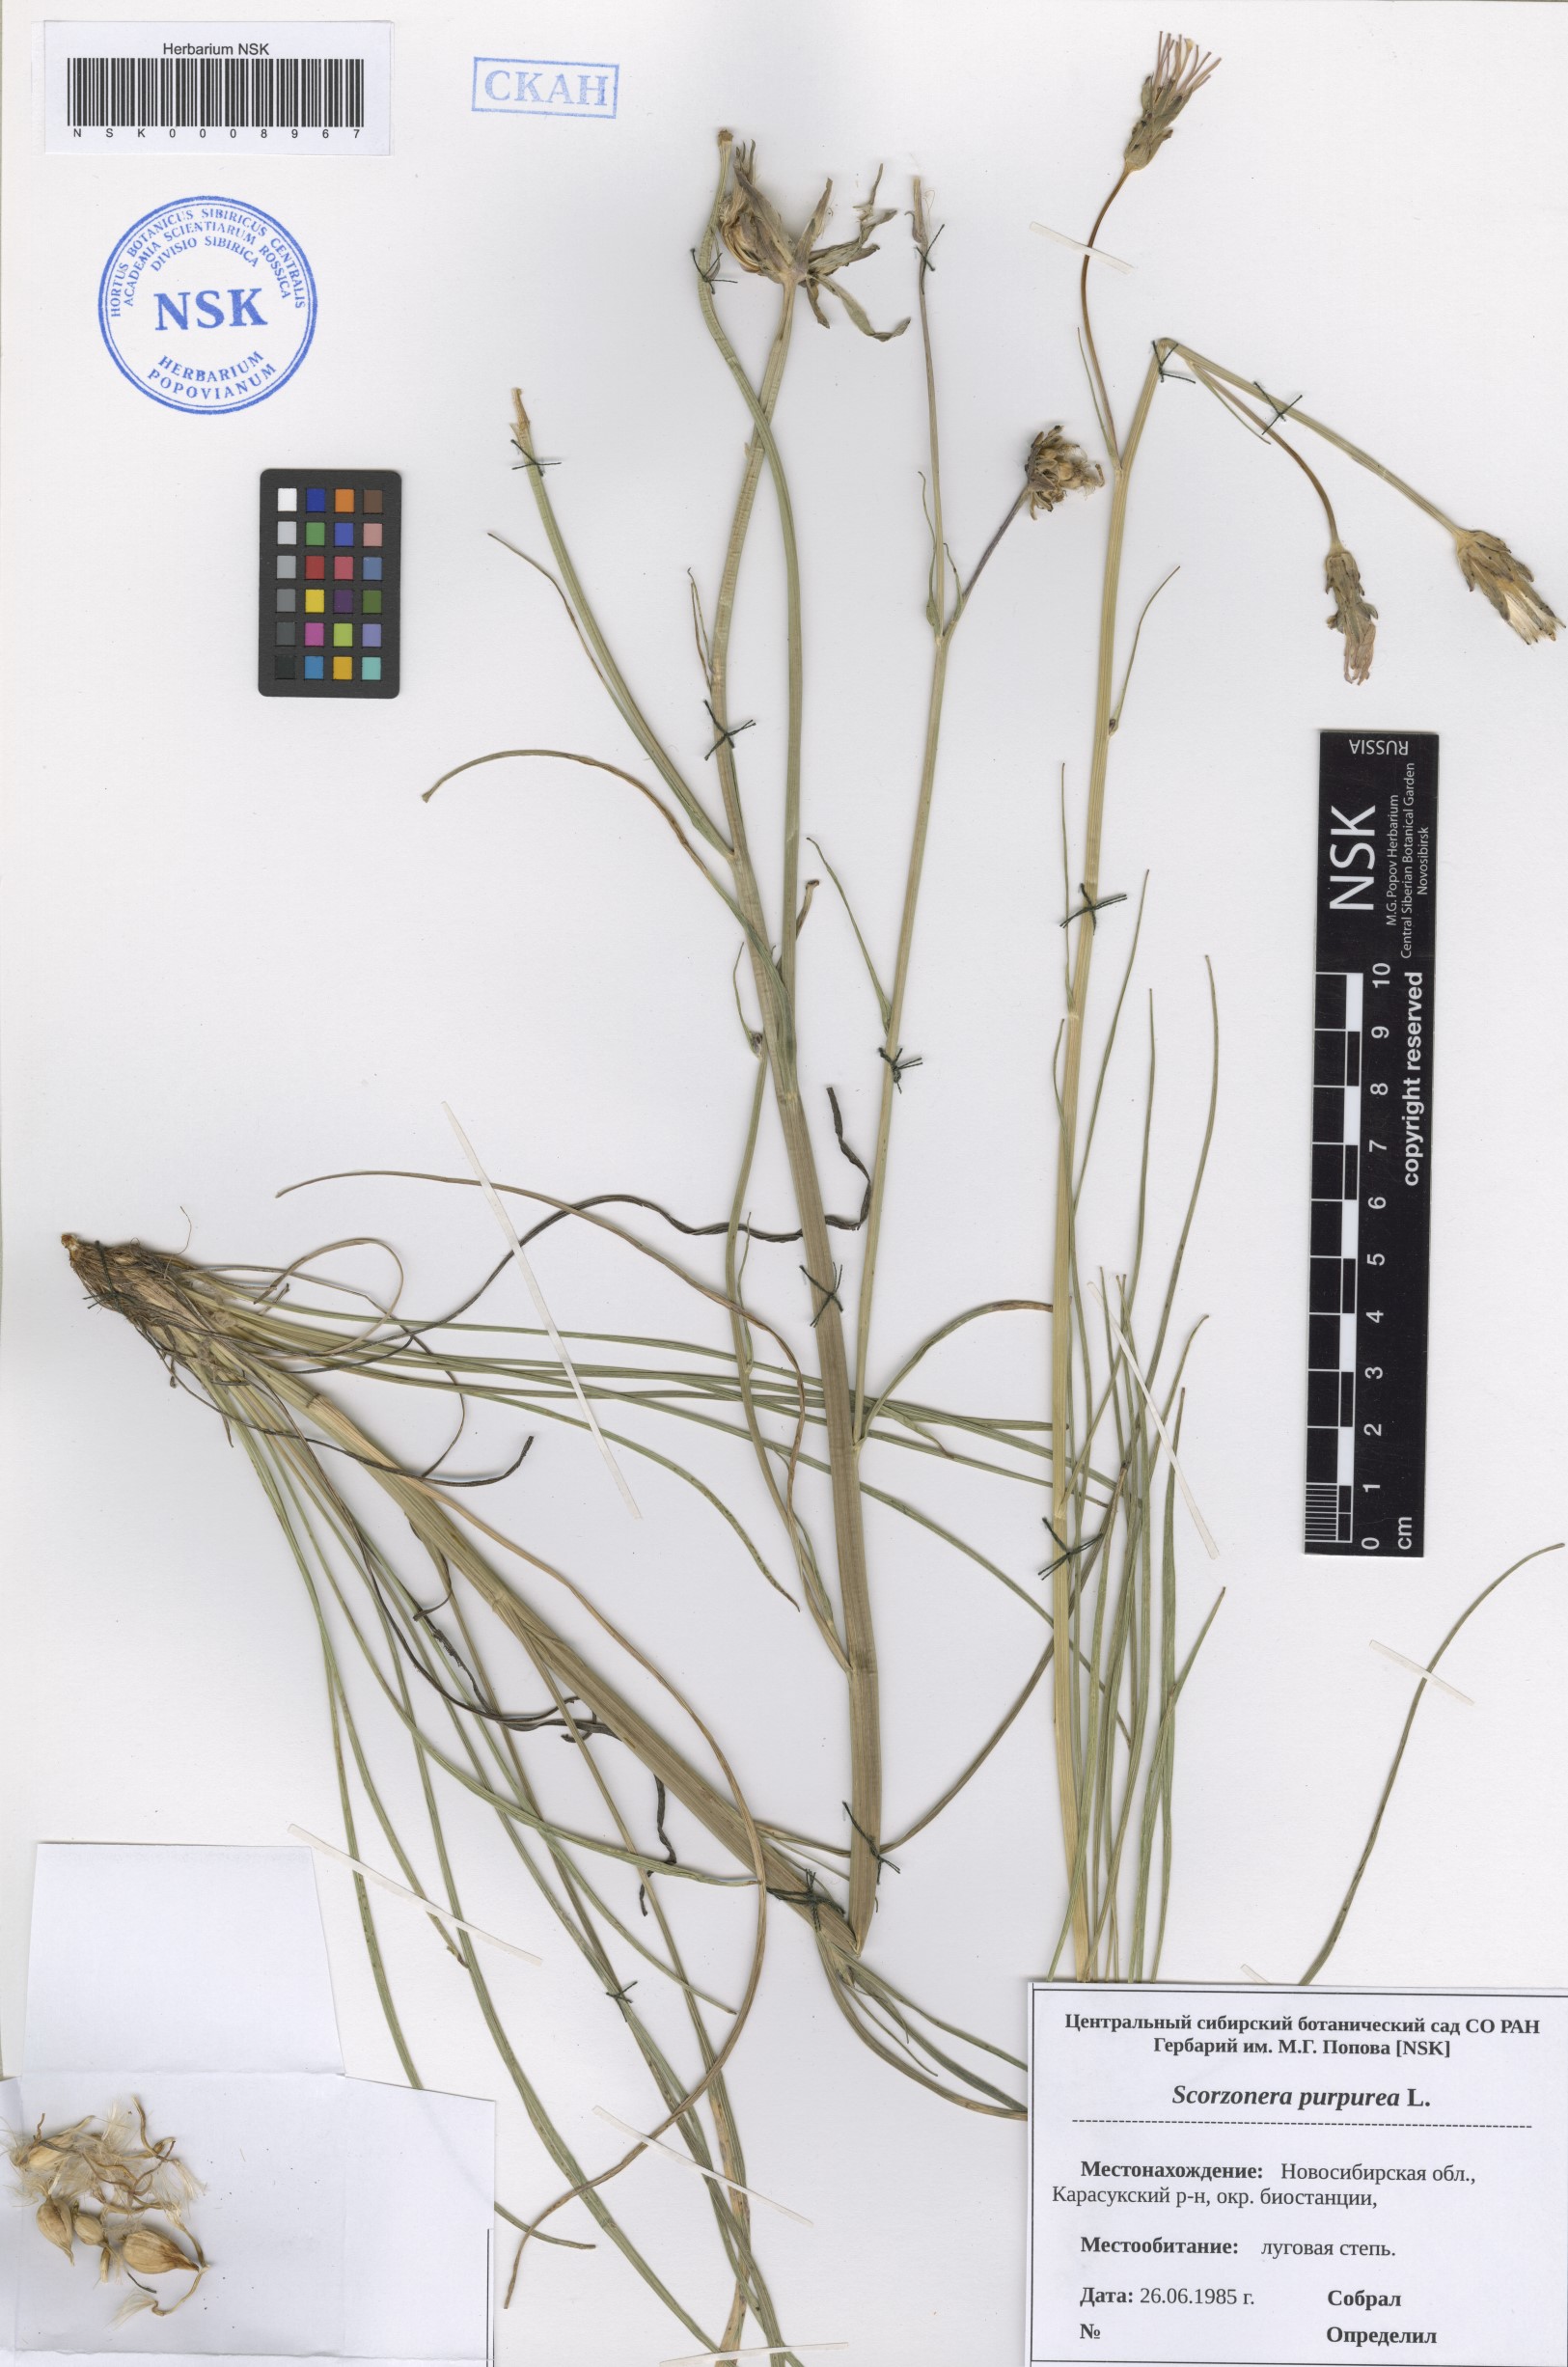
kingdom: Plantae
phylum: Tracheophyta
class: Magnoliopsida
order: Asterales
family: Asteraceae
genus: Scorzonera
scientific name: Scorzonera purpurea
